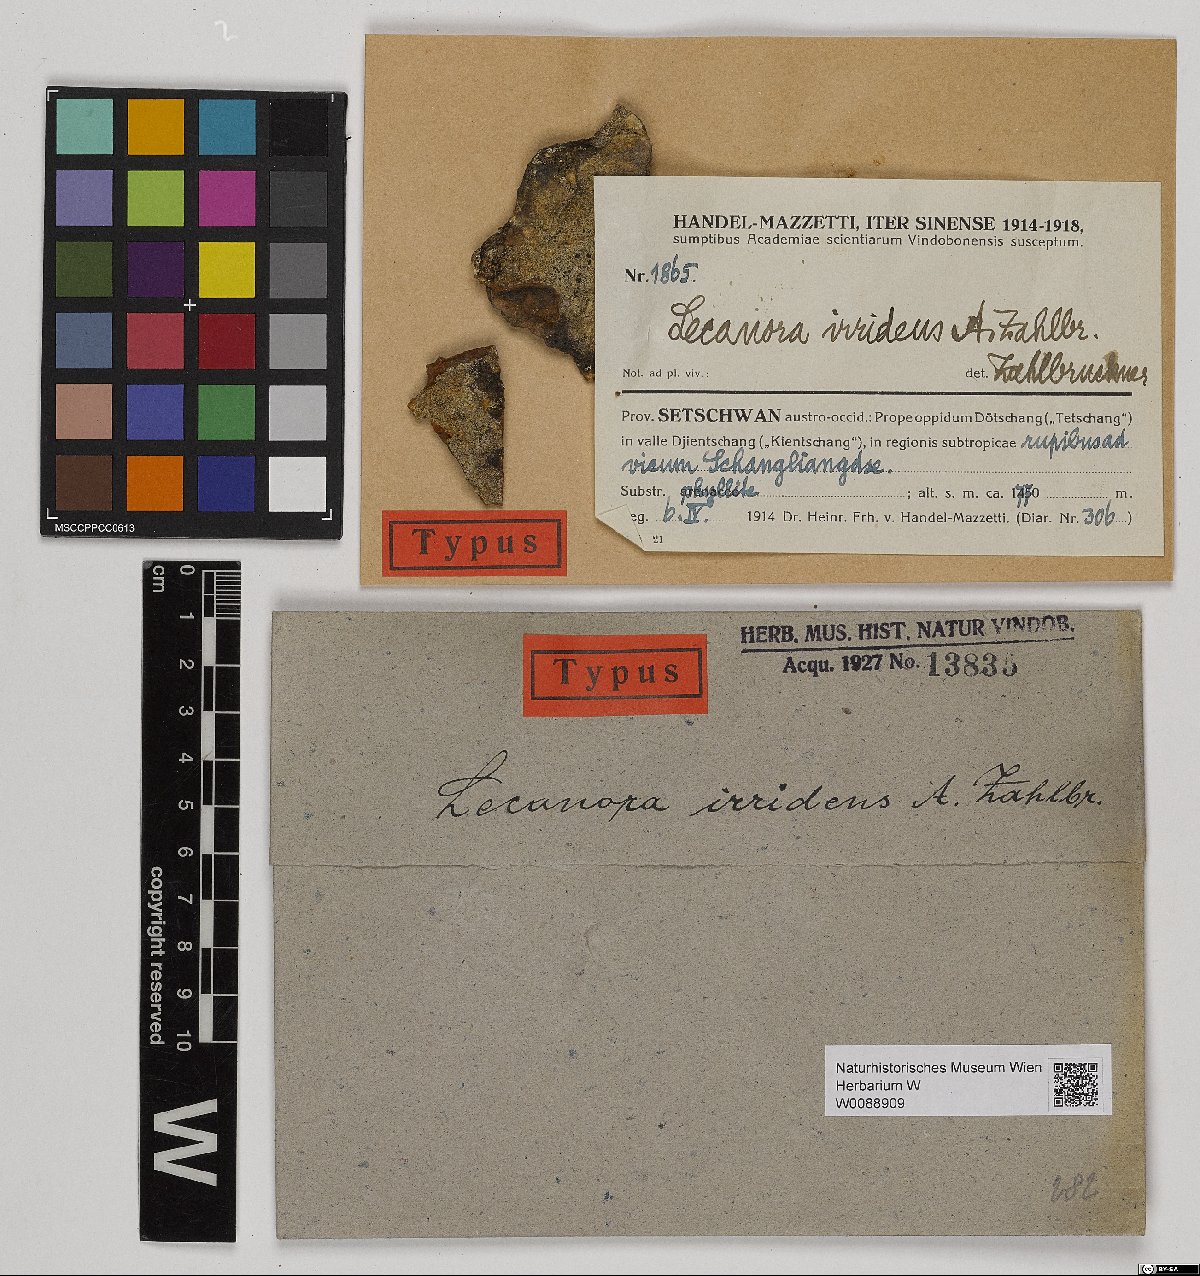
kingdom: Fungi
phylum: Ascomycota
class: Lecanoromycetes
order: Lecanorales
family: Lecanoraceae
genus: Lecanora
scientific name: Lecanora
